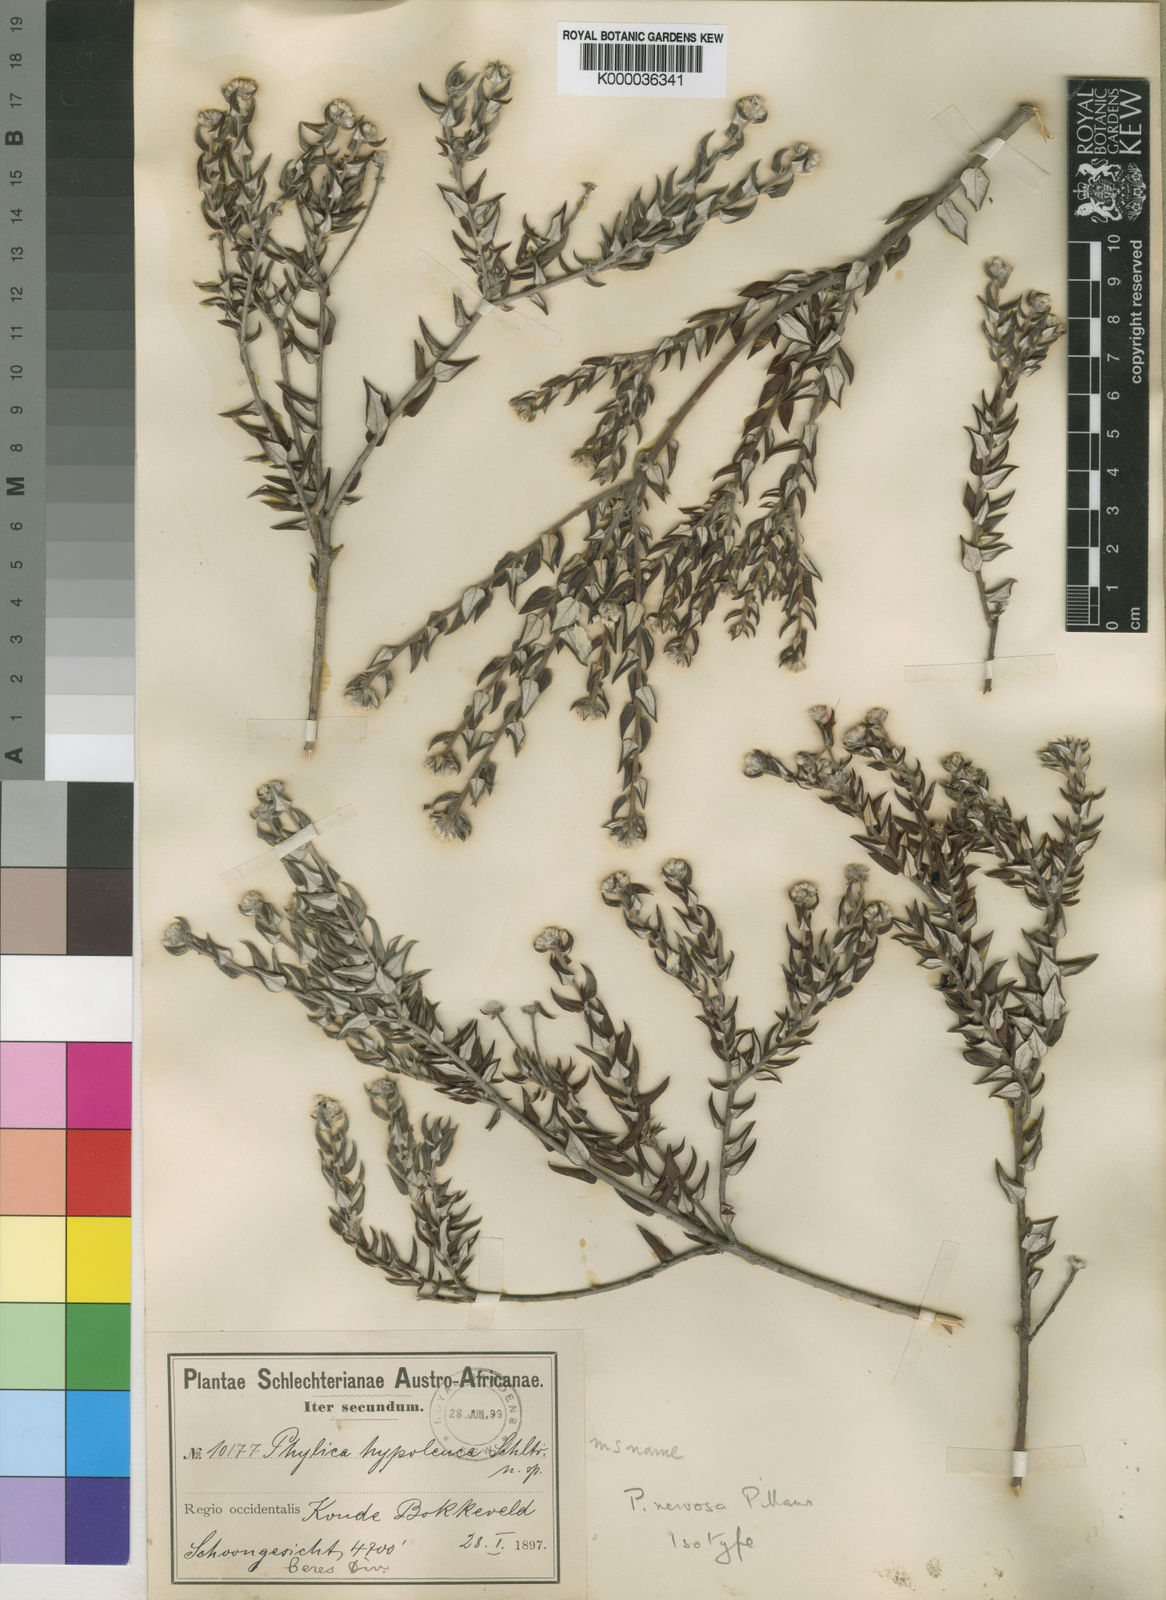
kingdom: Plantae
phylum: Tracheophyta
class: Magnoliopsida
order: Rosales
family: Rhamnaceae
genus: Phylica
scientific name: Phylica nervosa
